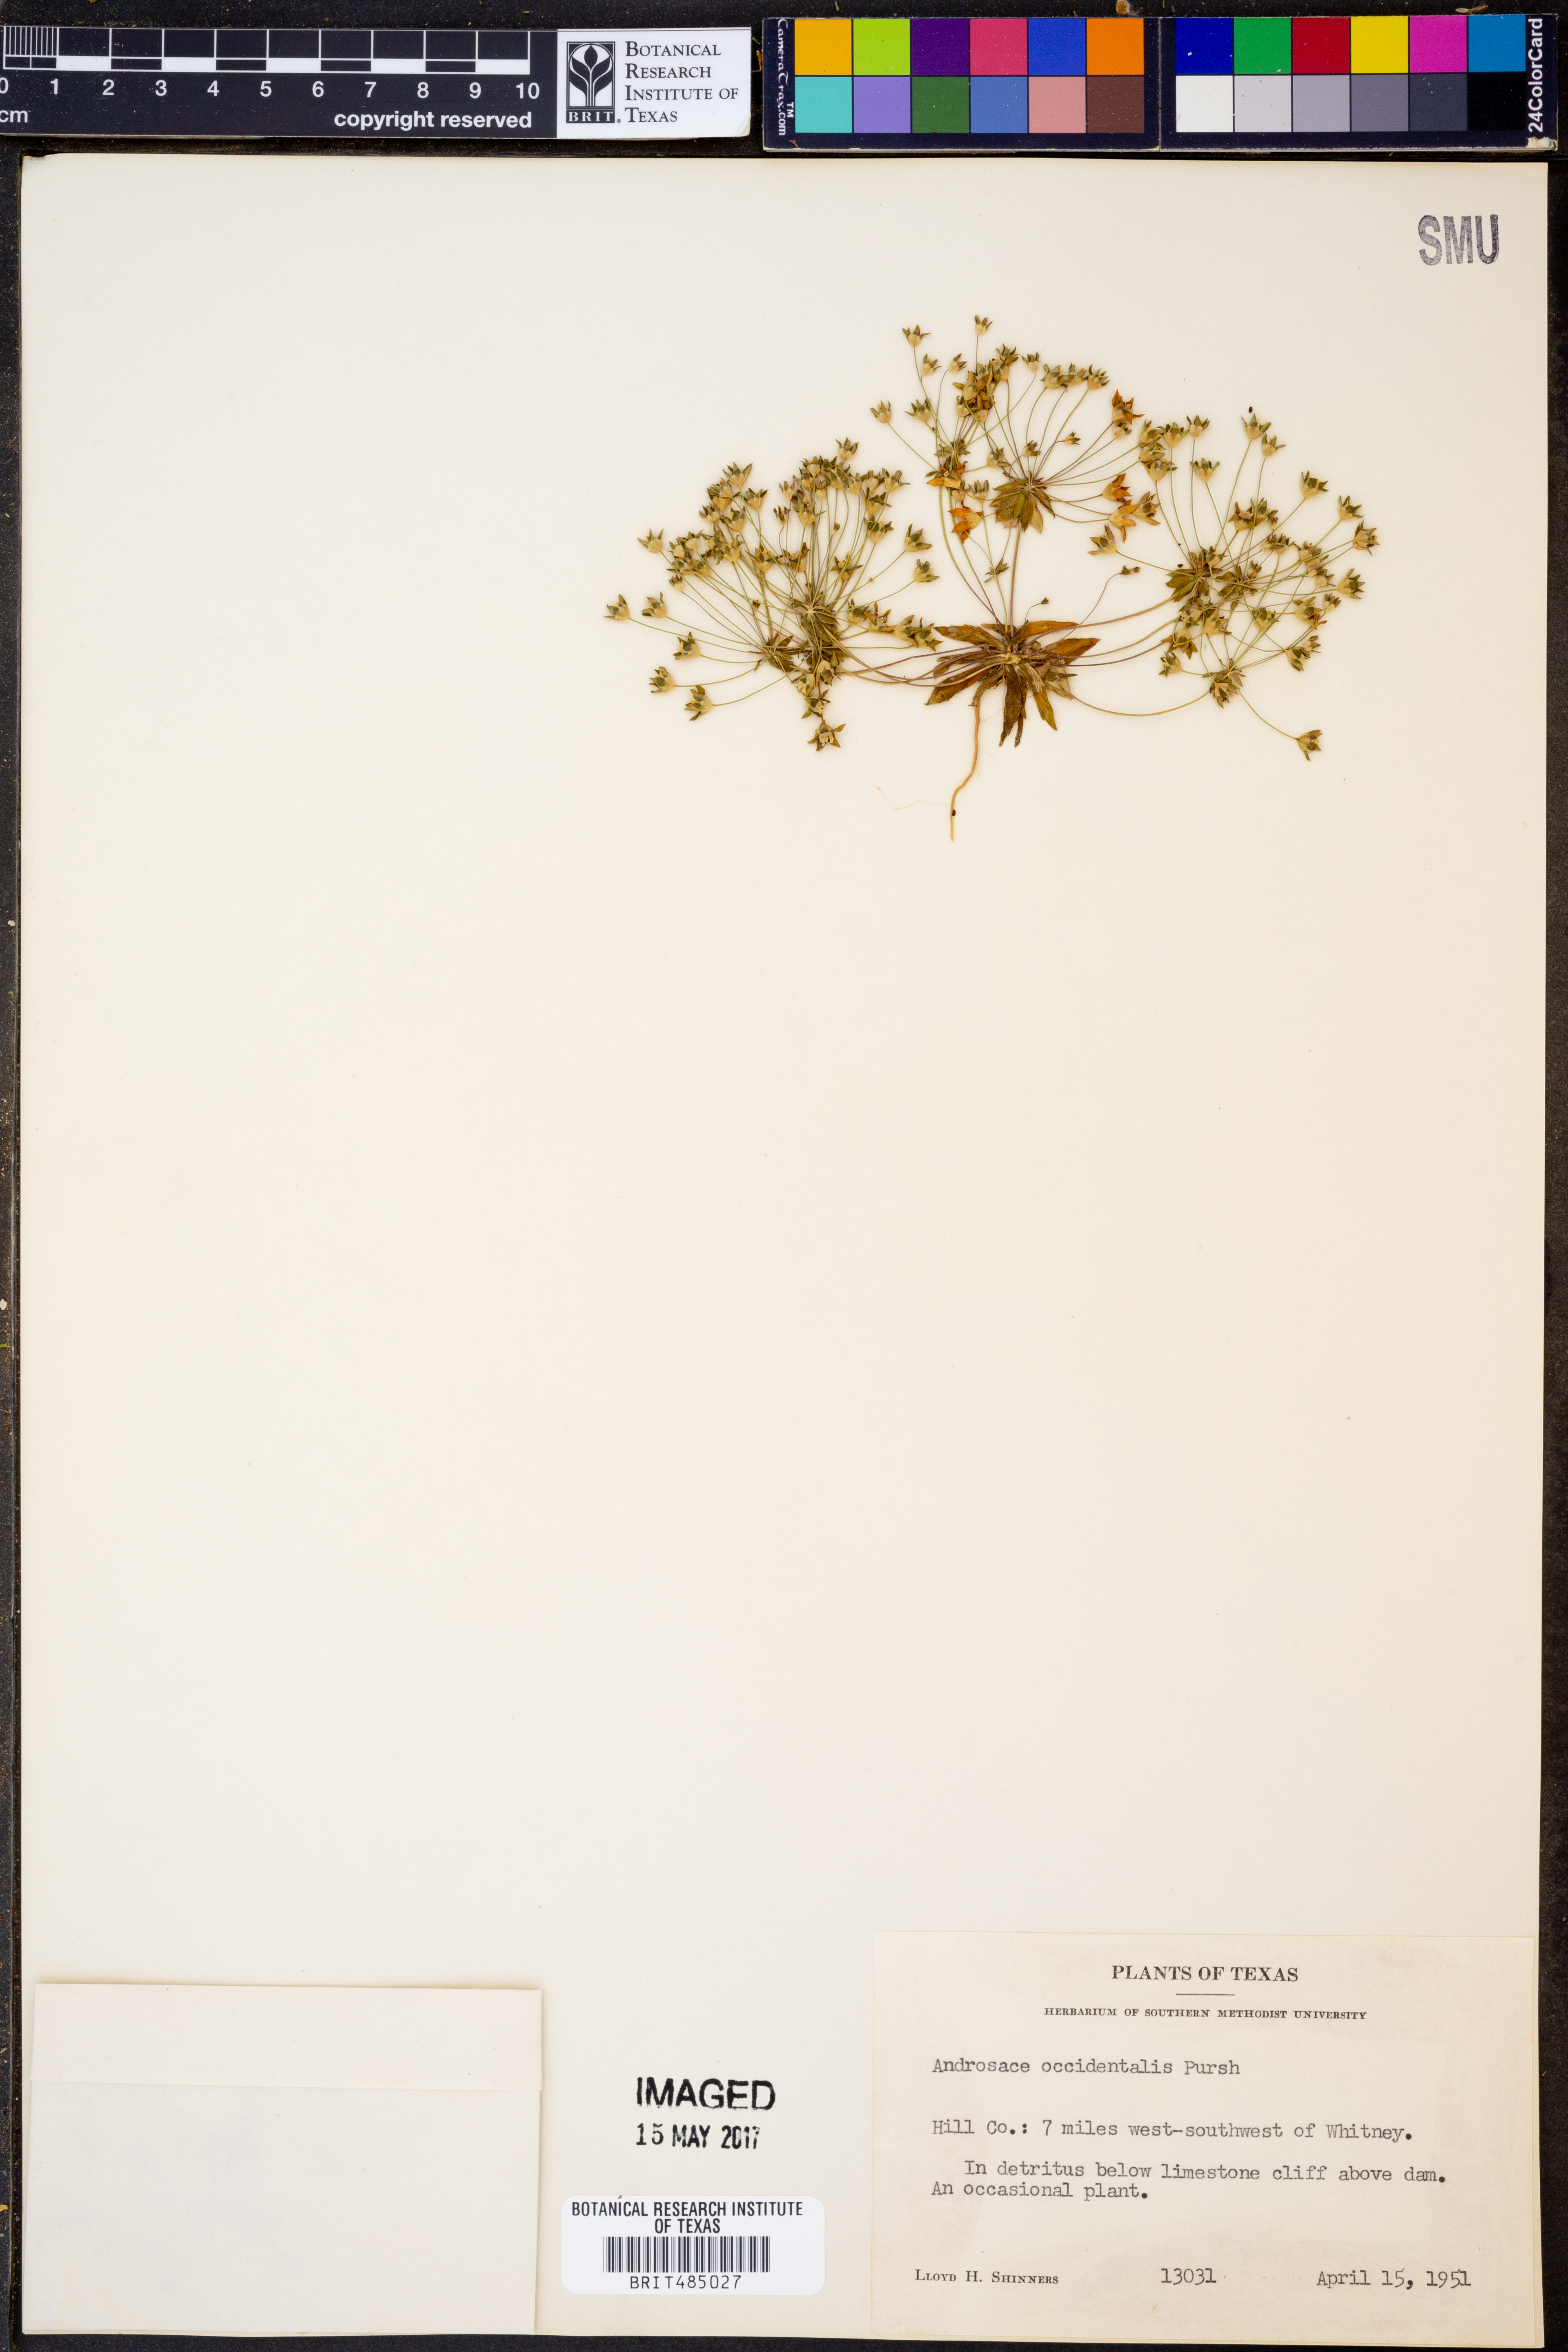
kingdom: Plantae
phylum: Tracheophyta
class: Magnoliopsida
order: Ericales
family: Primulaceae
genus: Androsace
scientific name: Androsace occidentalis
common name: West rock-jasmine
